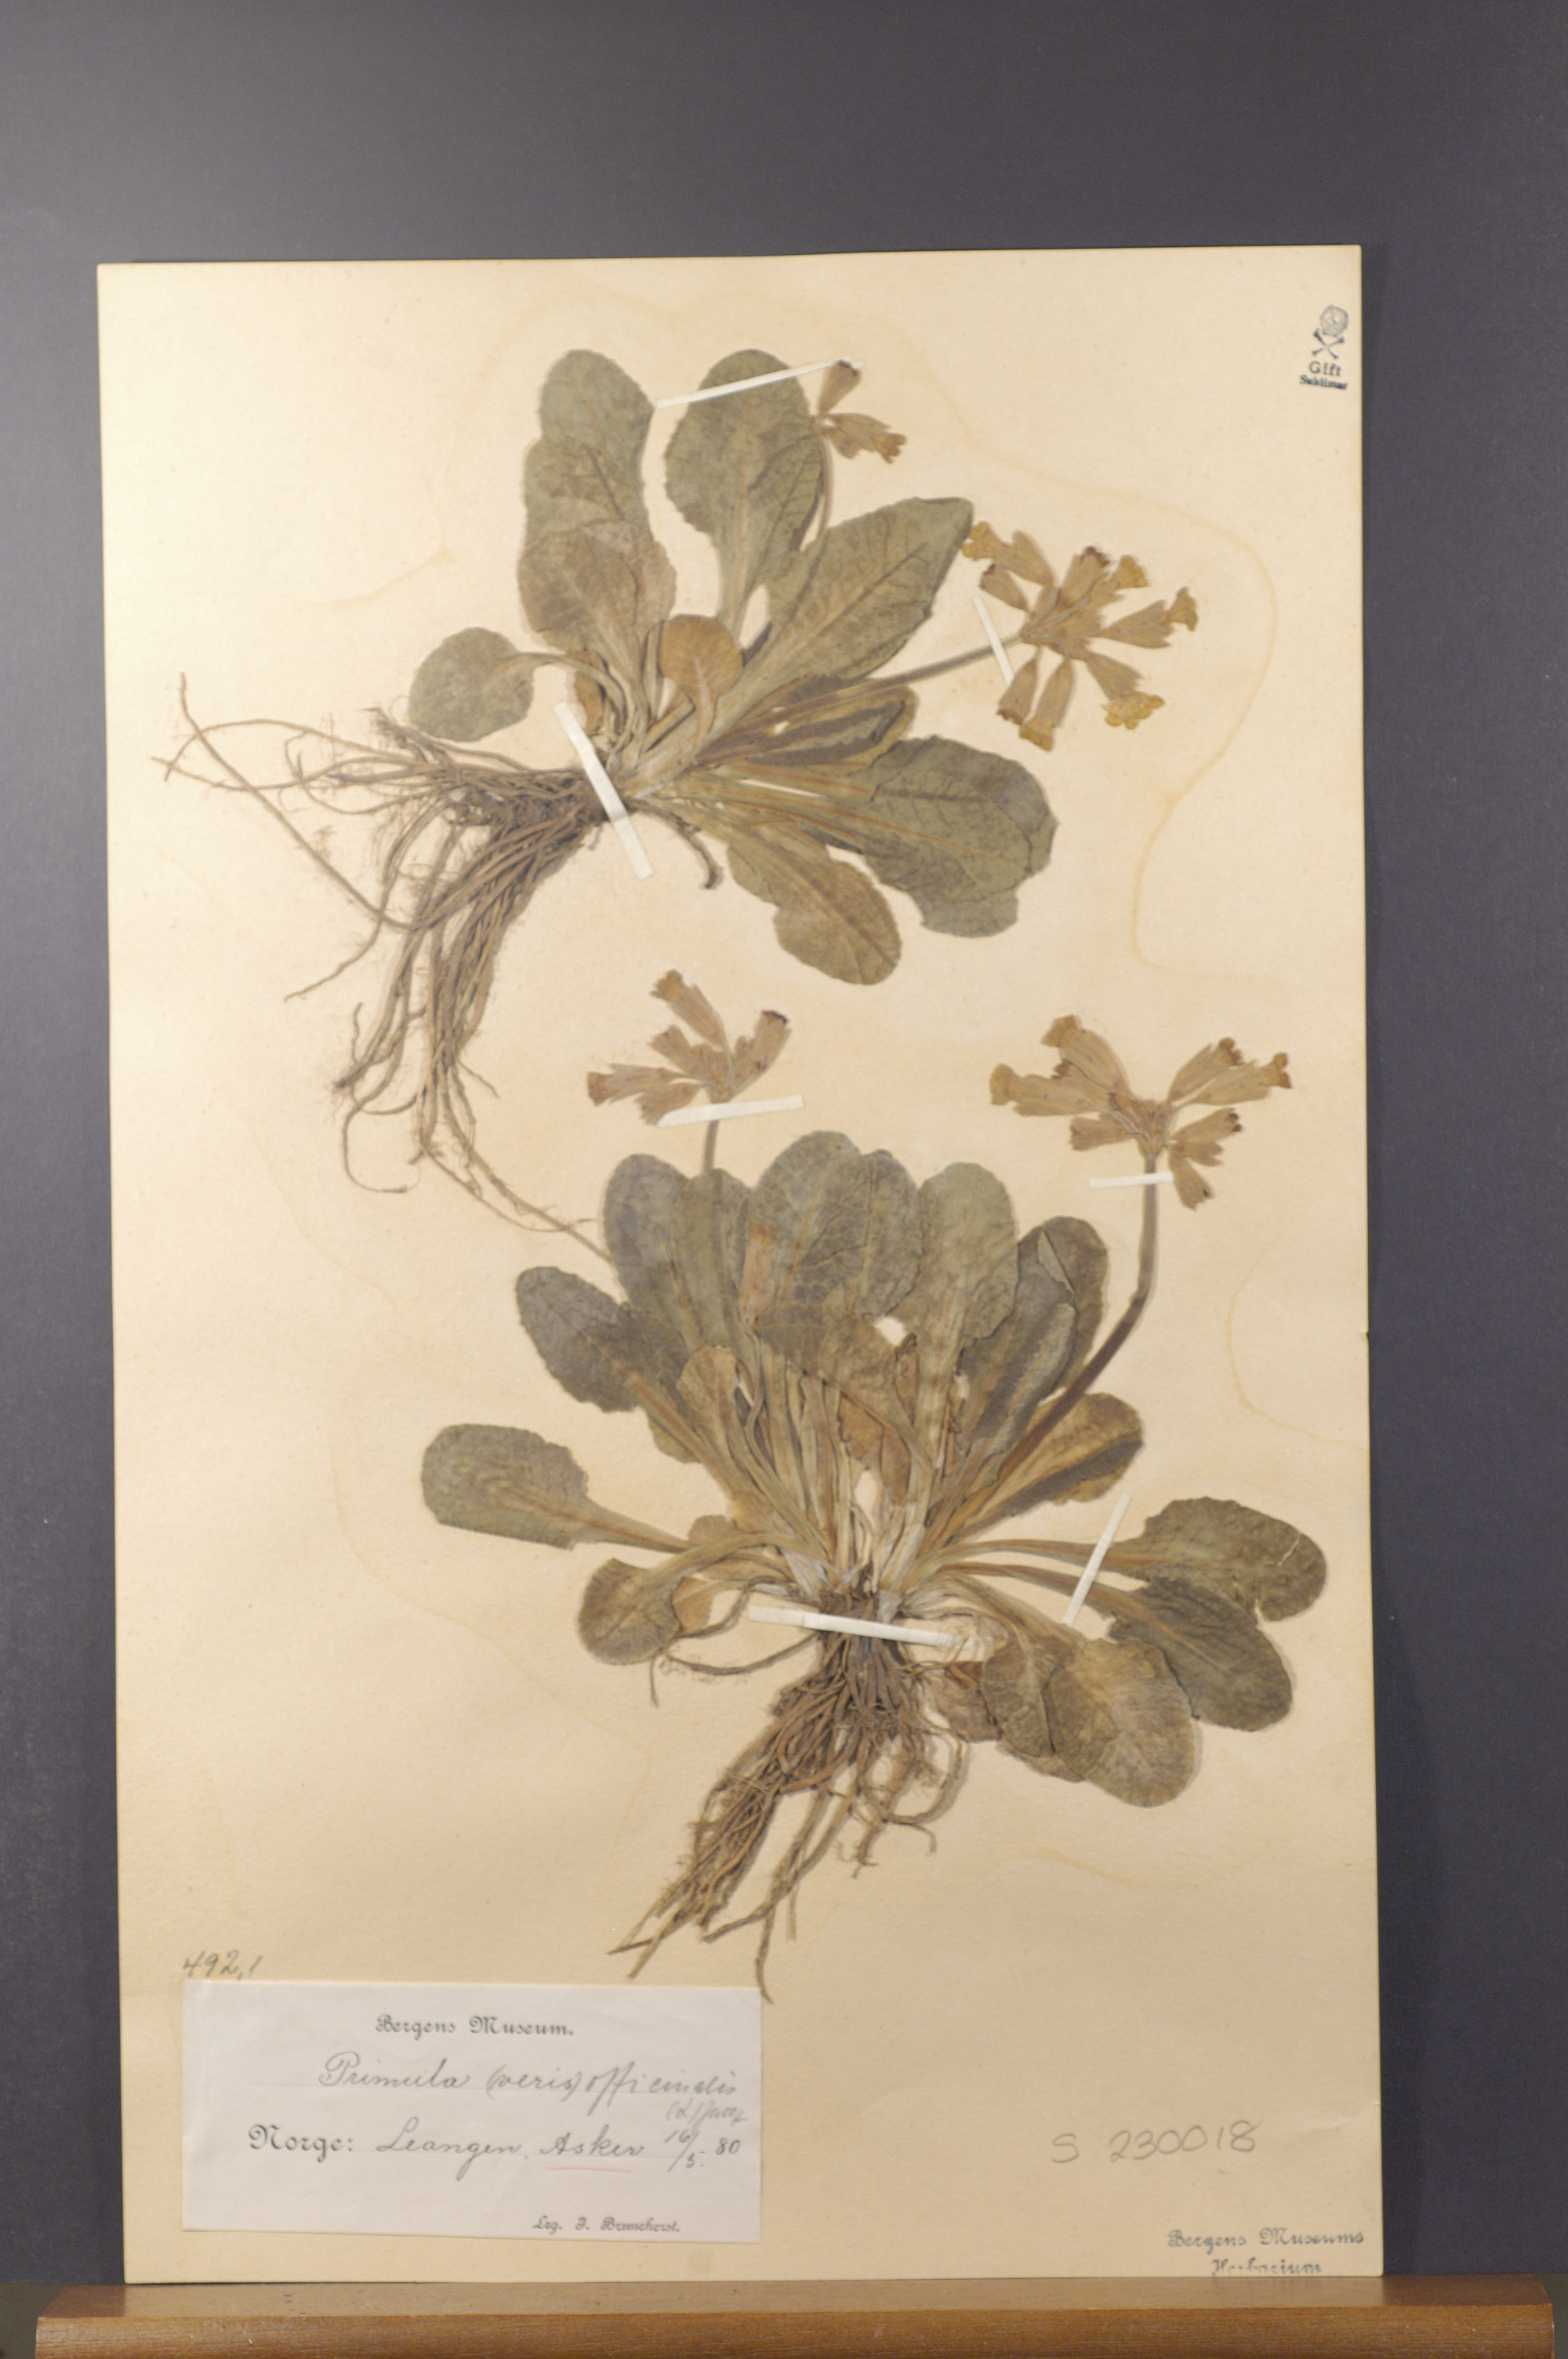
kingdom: Plantae
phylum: Tracheophyta
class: Magnoliopsida
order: Ericales
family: Primulaceae
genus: Primula
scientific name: Primula veris
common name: Cowslip
